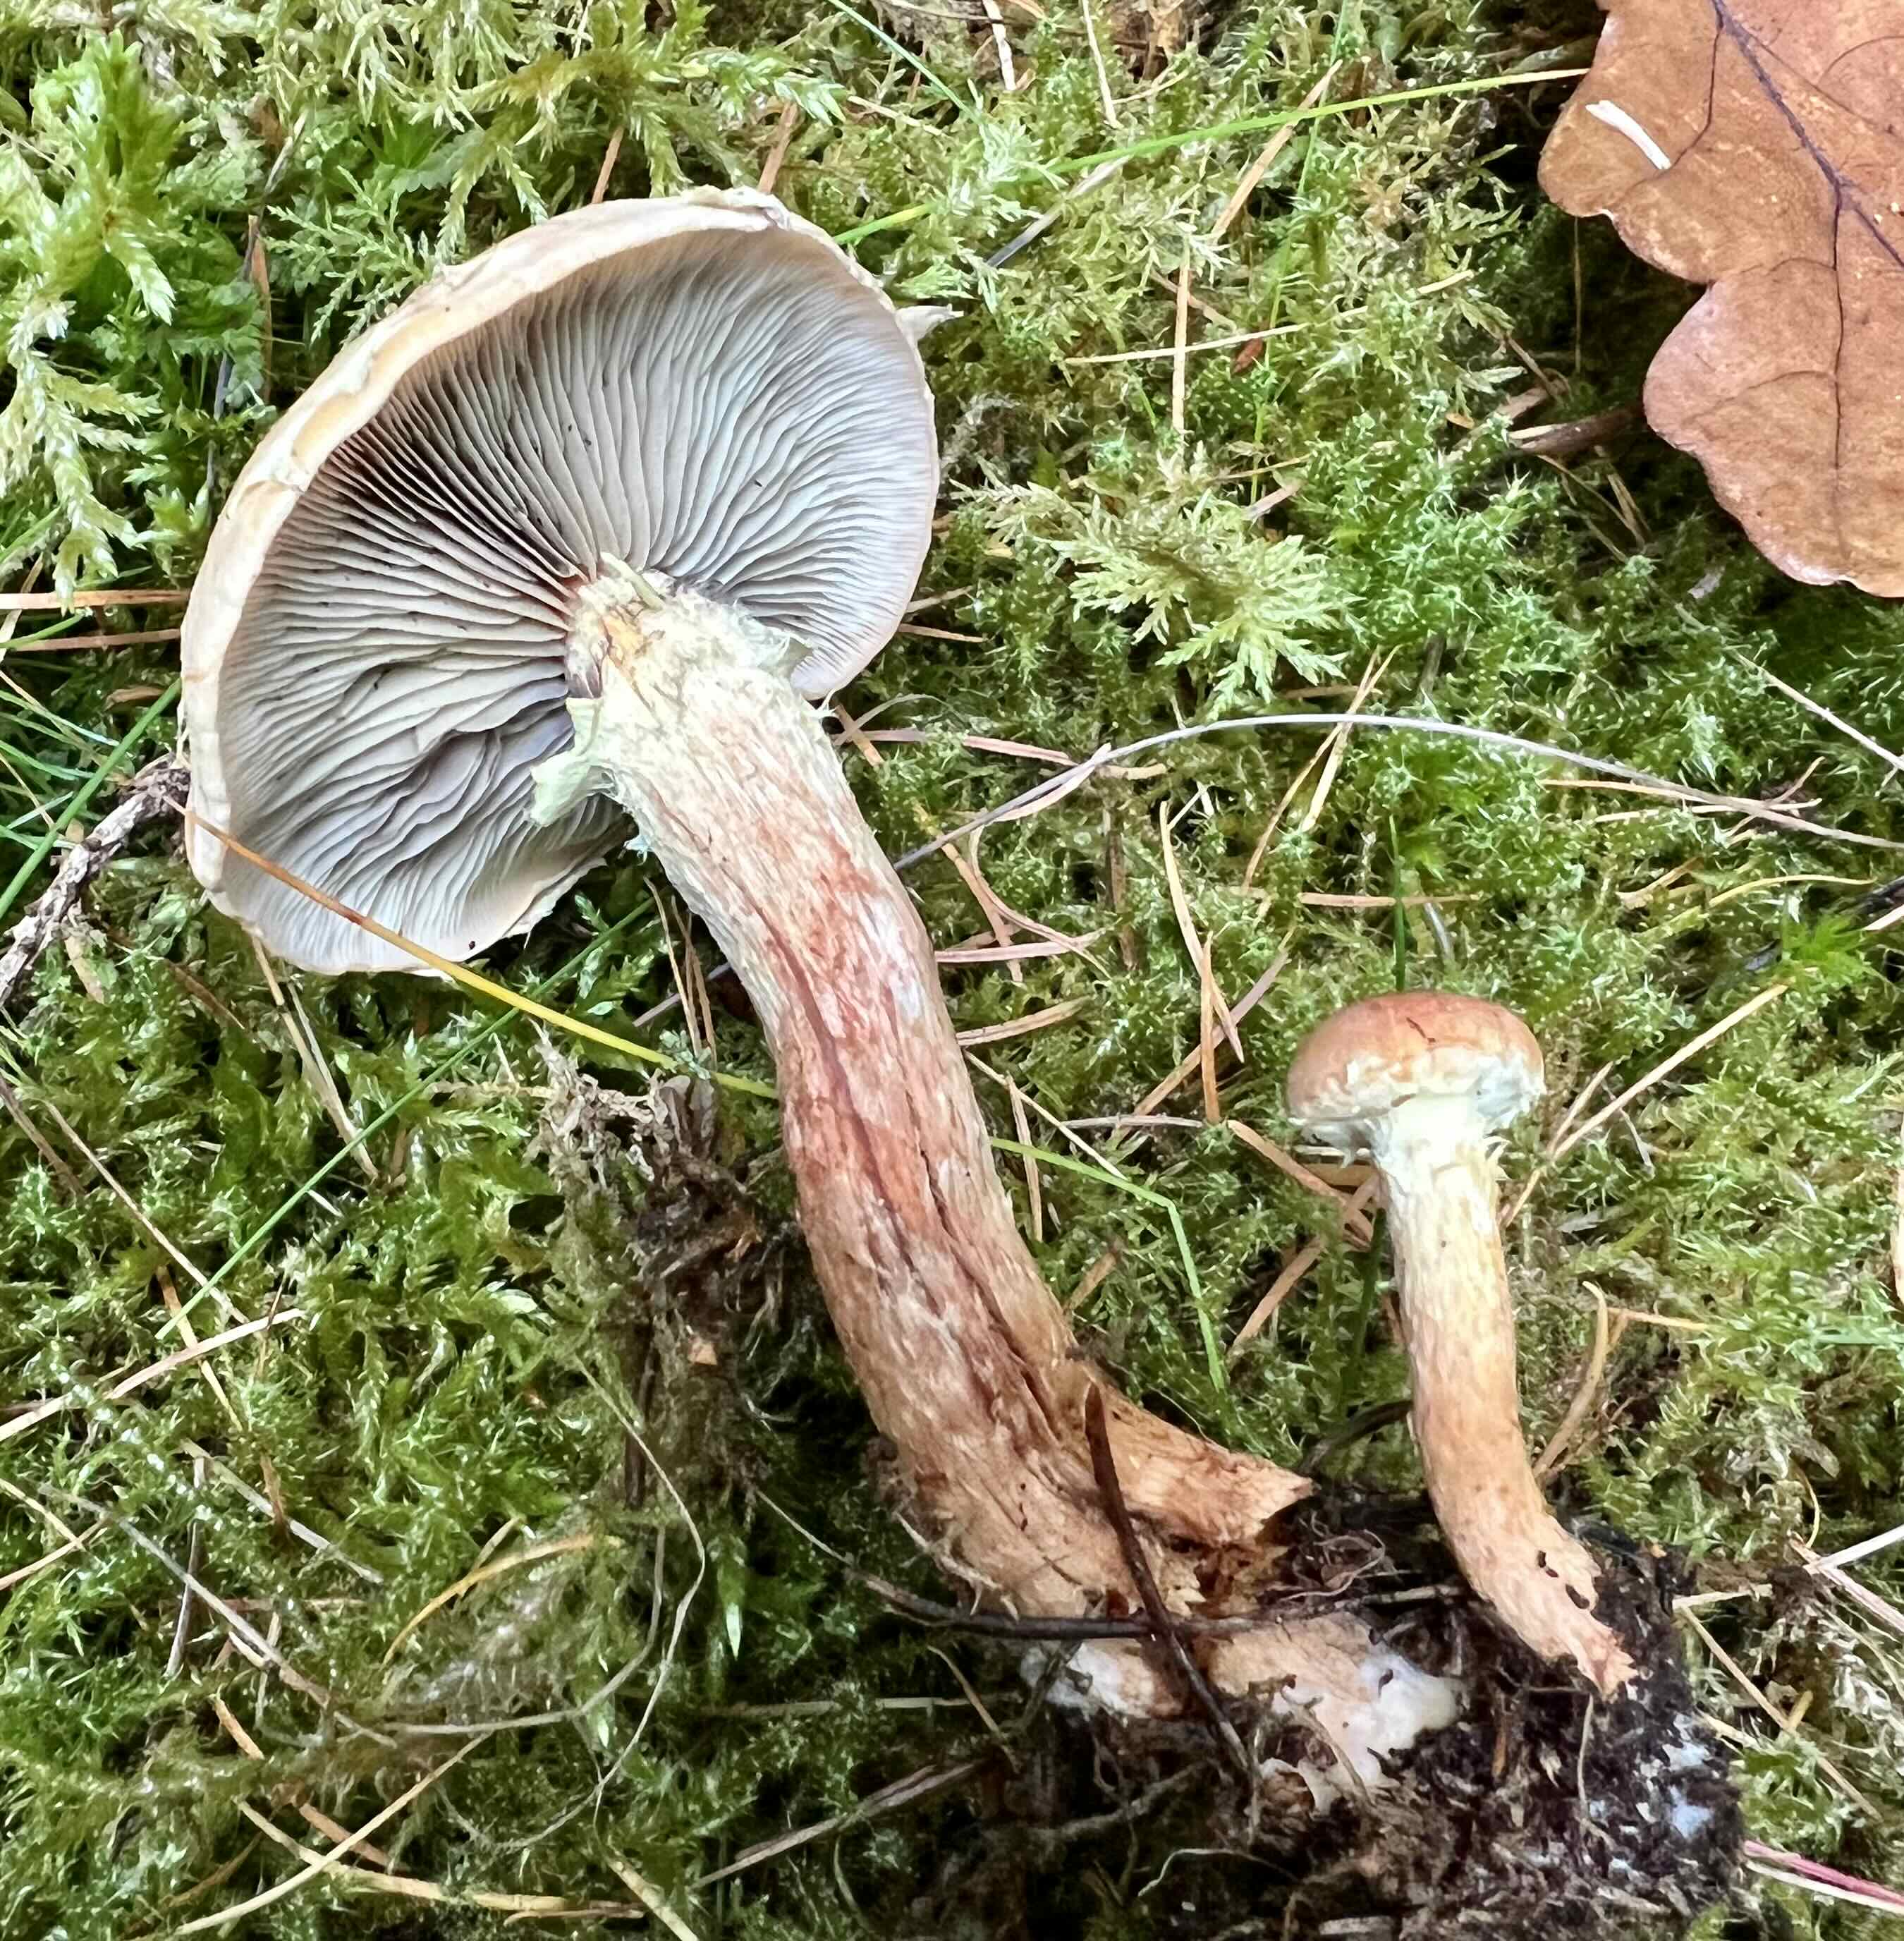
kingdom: Fungi
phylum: Basidiomycota
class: Agaricomycetes
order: Agaricales
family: Strophariaceae
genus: Hypholoma
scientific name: Hypholoma lateritium
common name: teglrød svovlhat
